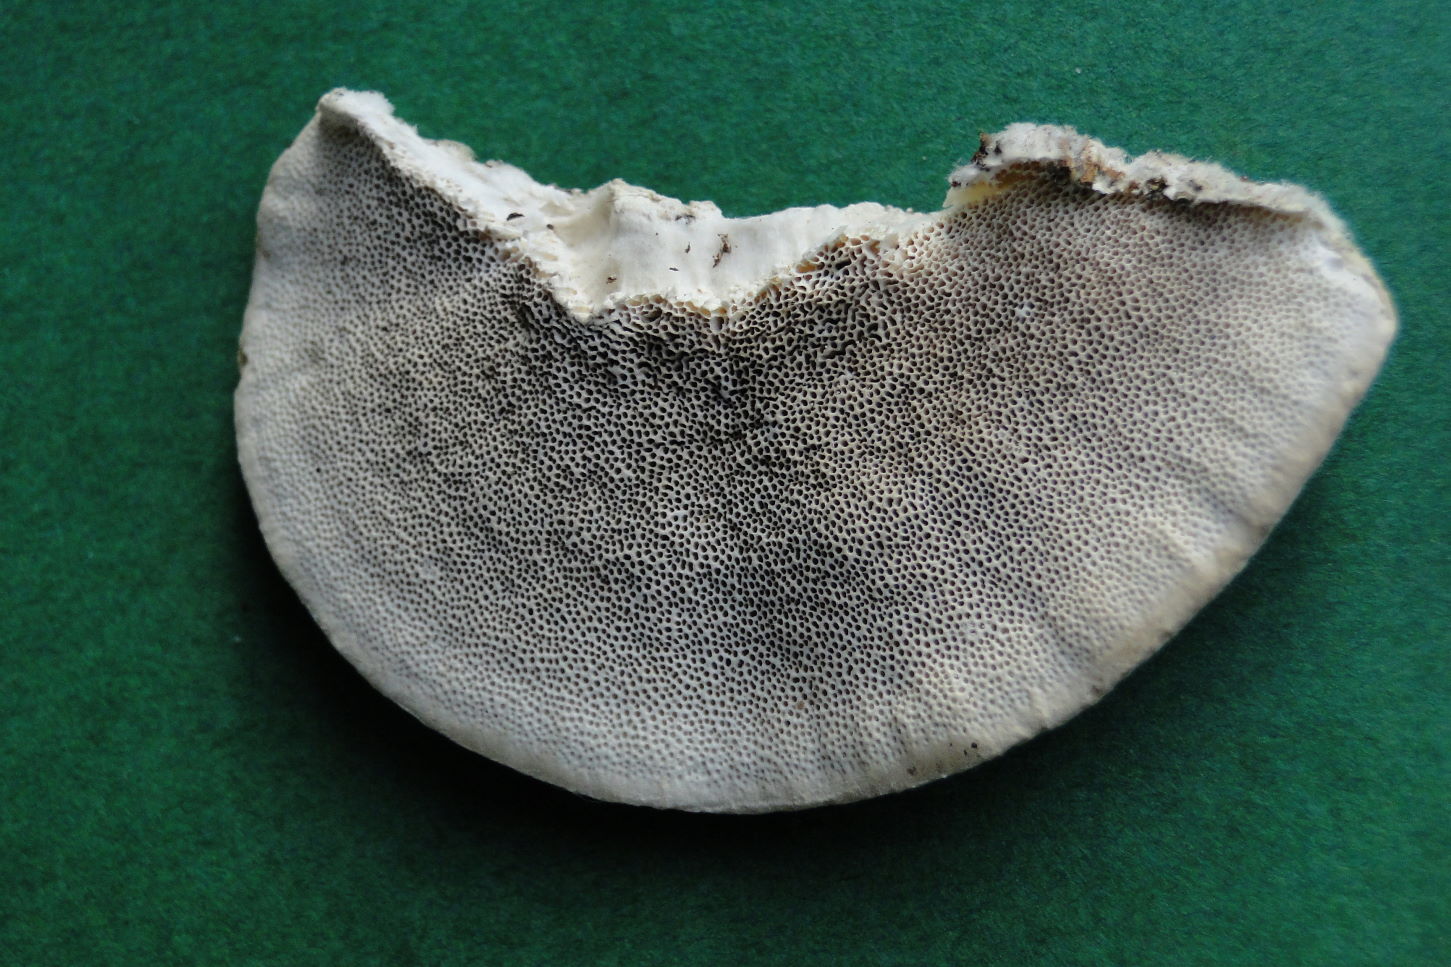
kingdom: Fungi
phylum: Basidiomycota
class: Agaricomycetes
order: Polyporales
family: Polyporaceae
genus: Trametes
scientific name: Trametes hirsuta
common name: håret læderporesvamp
